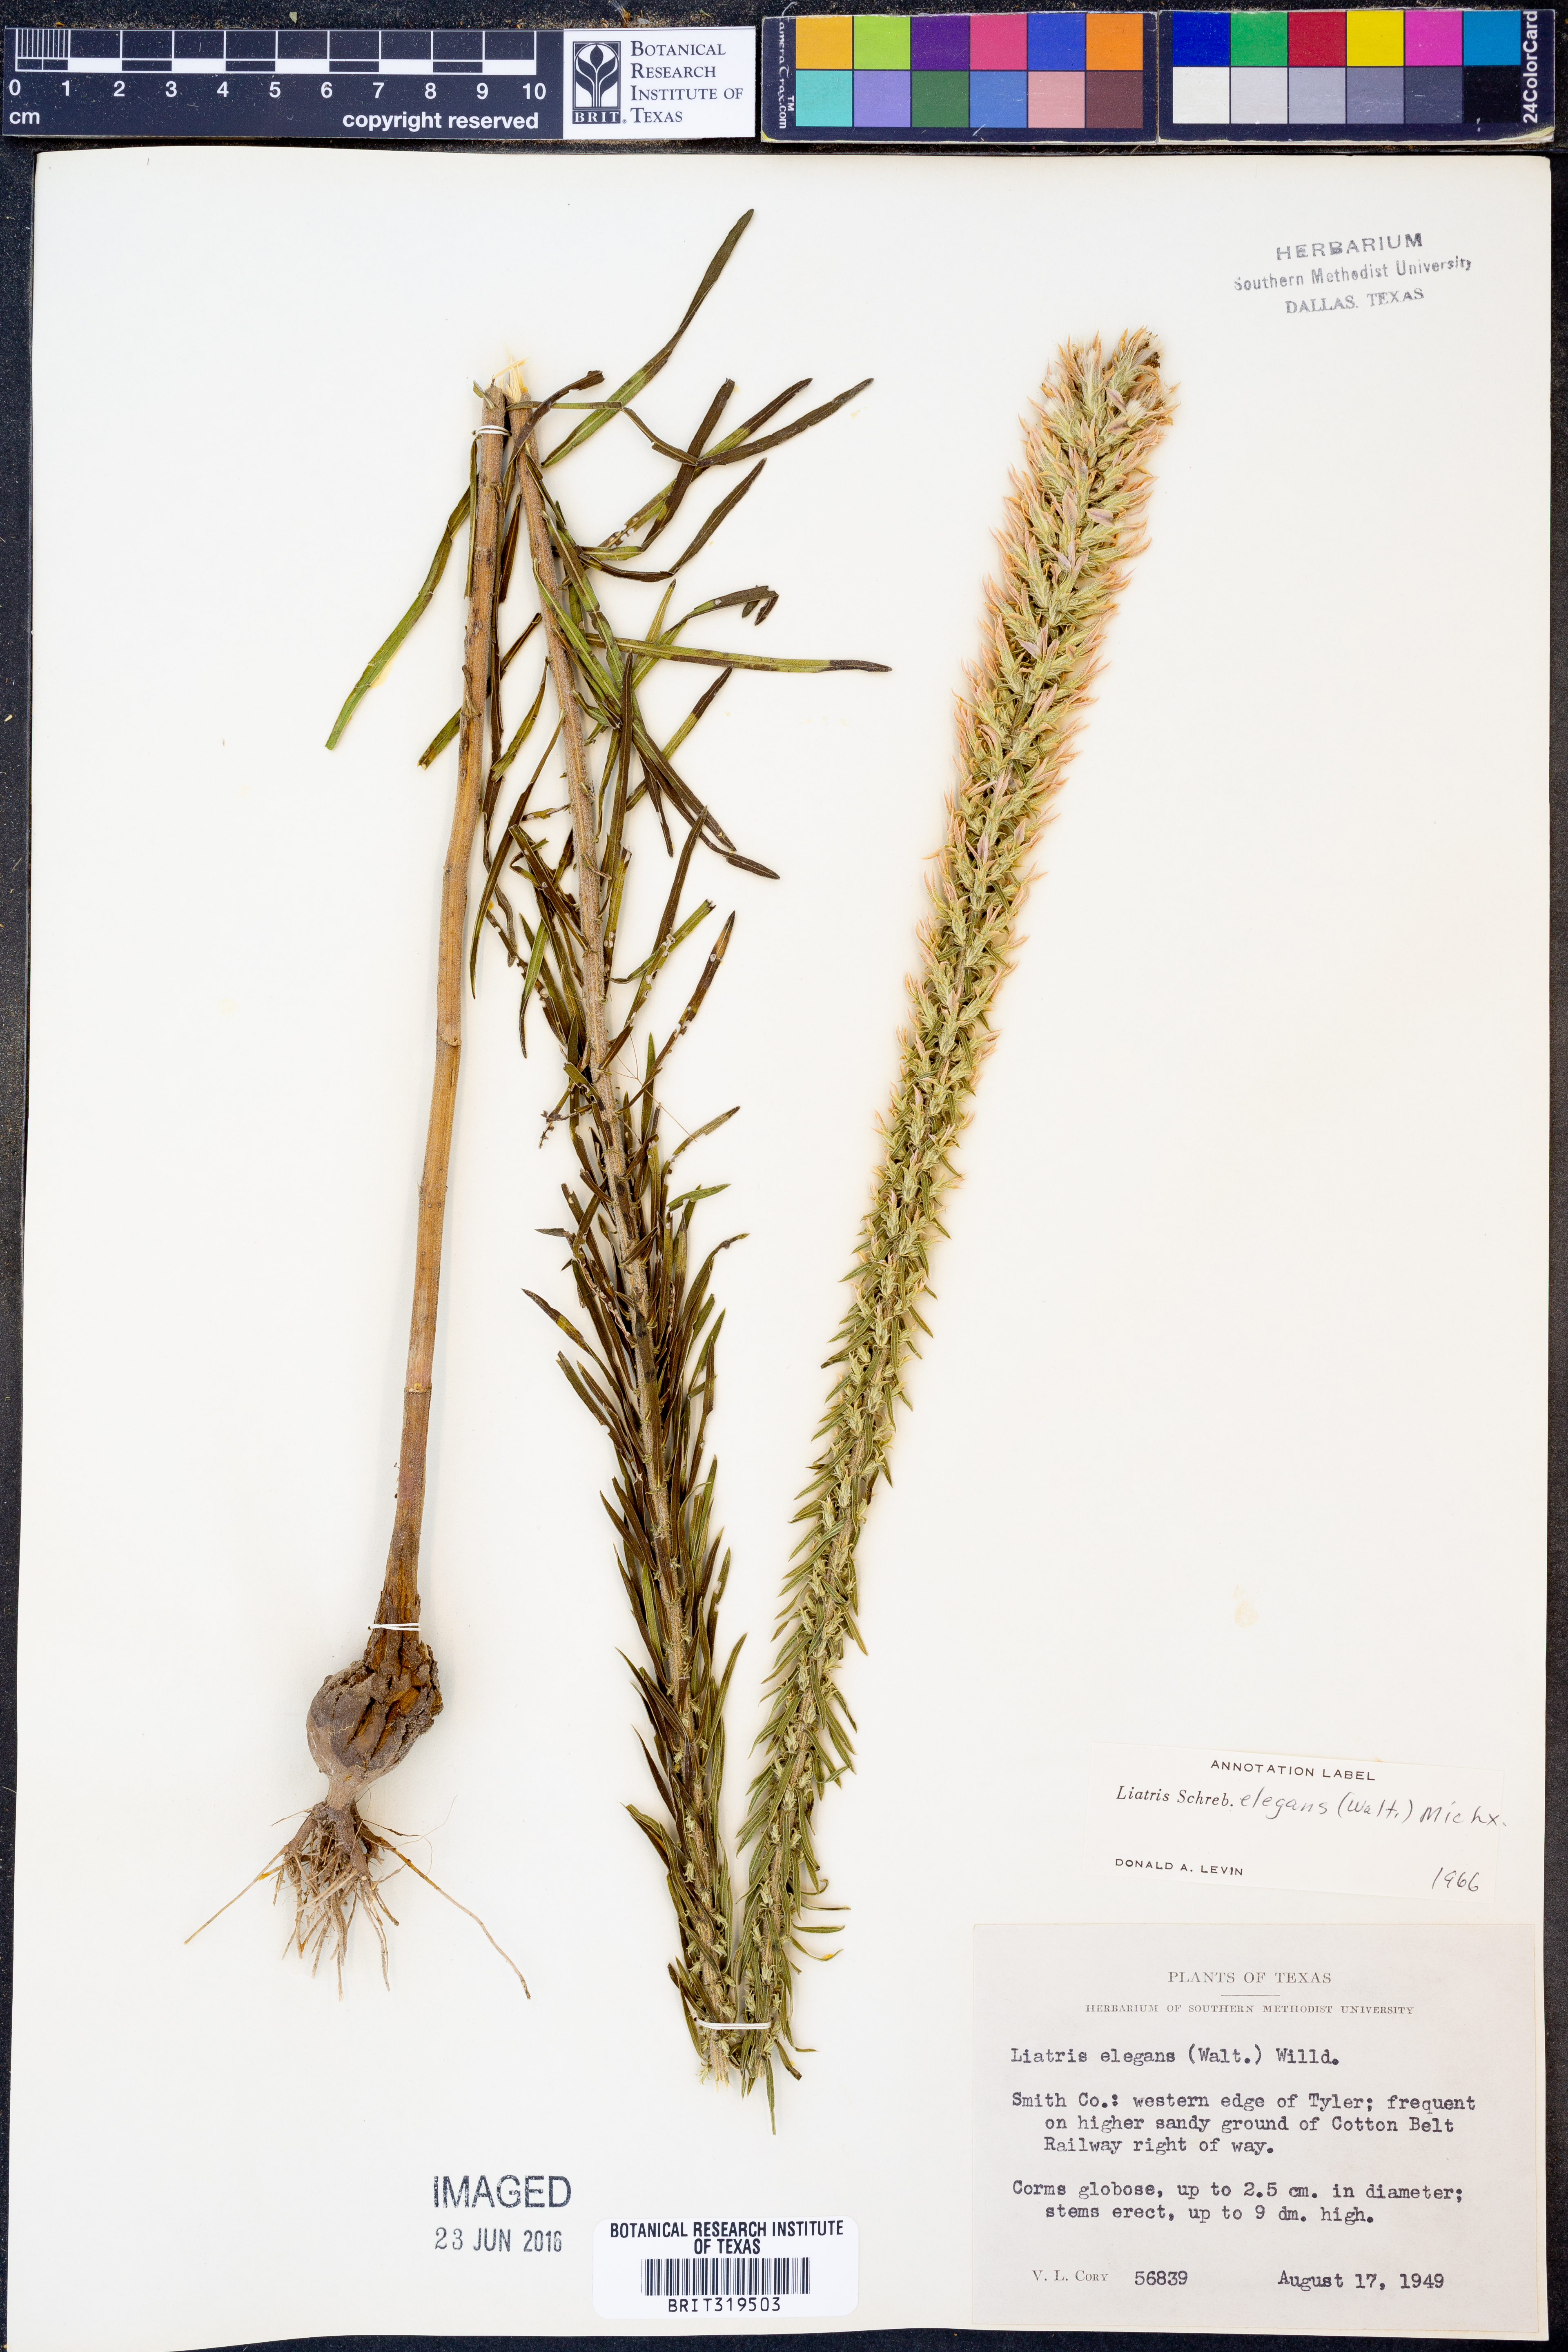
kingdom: Plantae
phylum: Tracheophyta
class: Magnoliopsida
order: Asterales
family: Asteraceae
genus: Liatris
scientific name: Liatris elegans
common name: Pinkscale gayfeather
